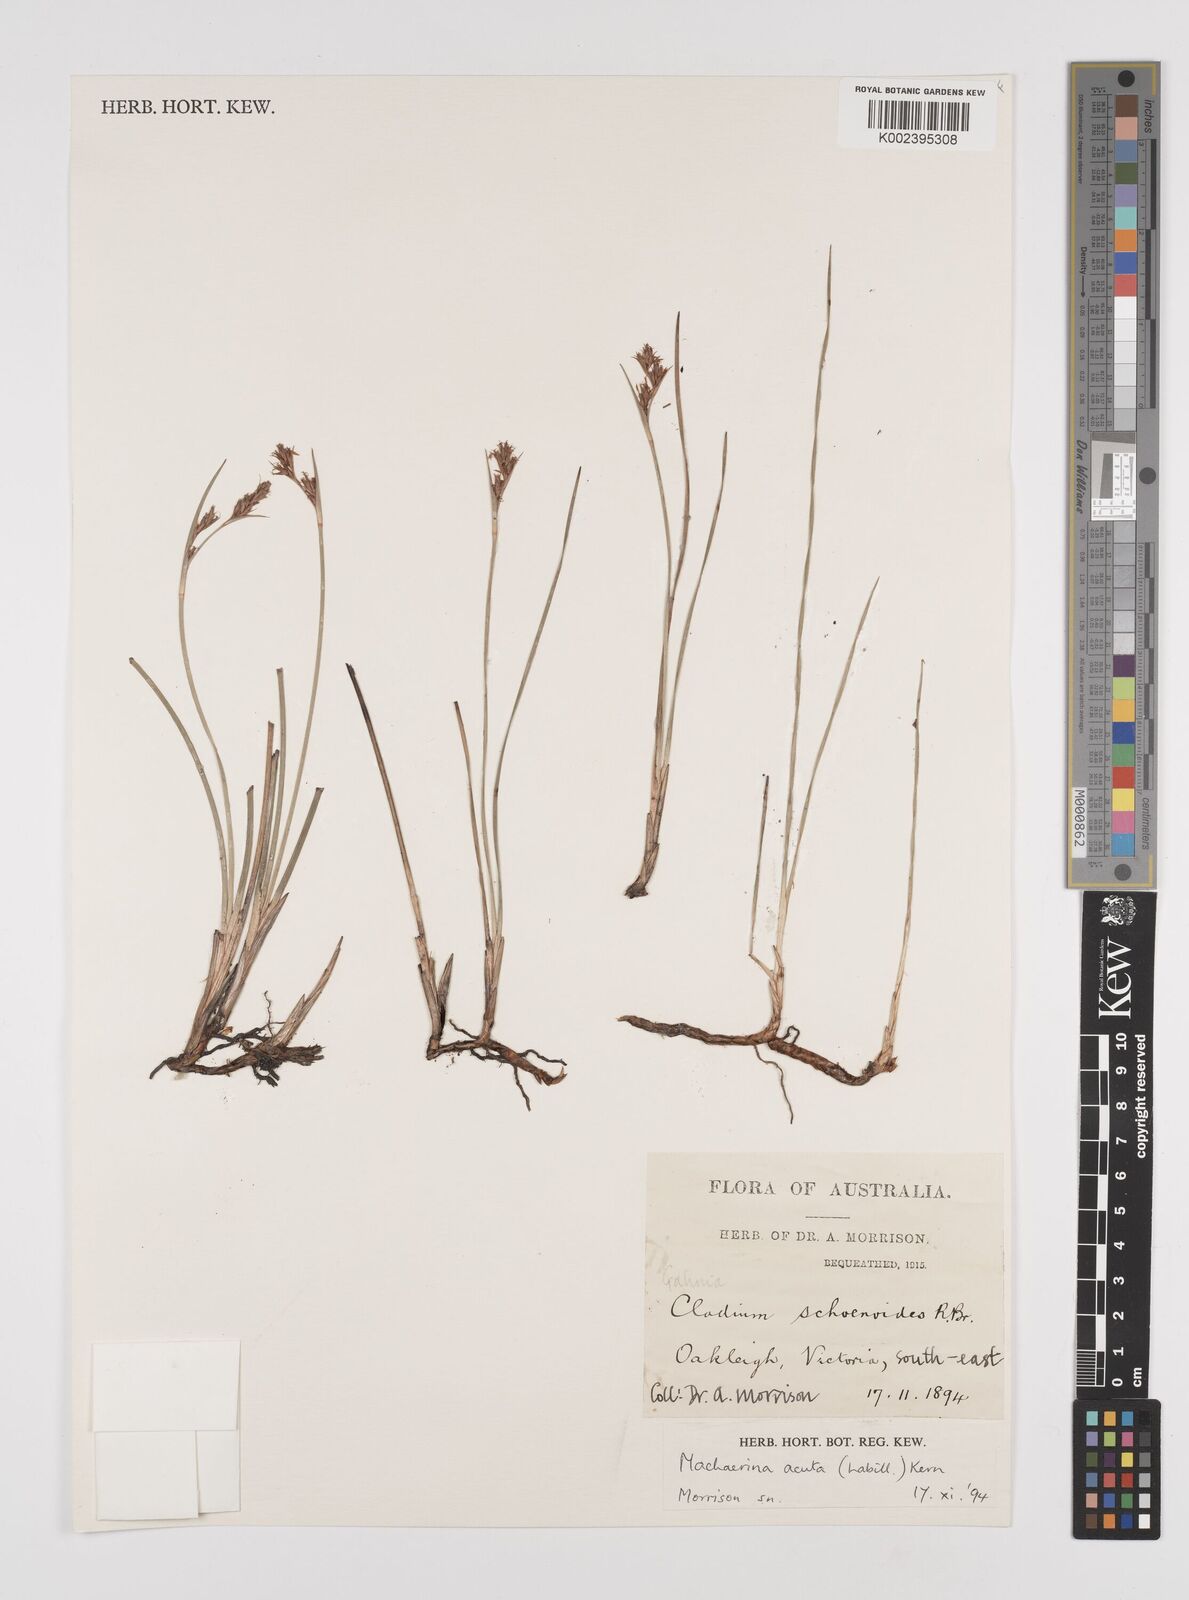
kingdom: Plantae
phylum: Tracheophyta
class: Liliopsida
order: Poales
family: Cyperaceae
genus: Machaerina
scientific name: Machaerina acuta
